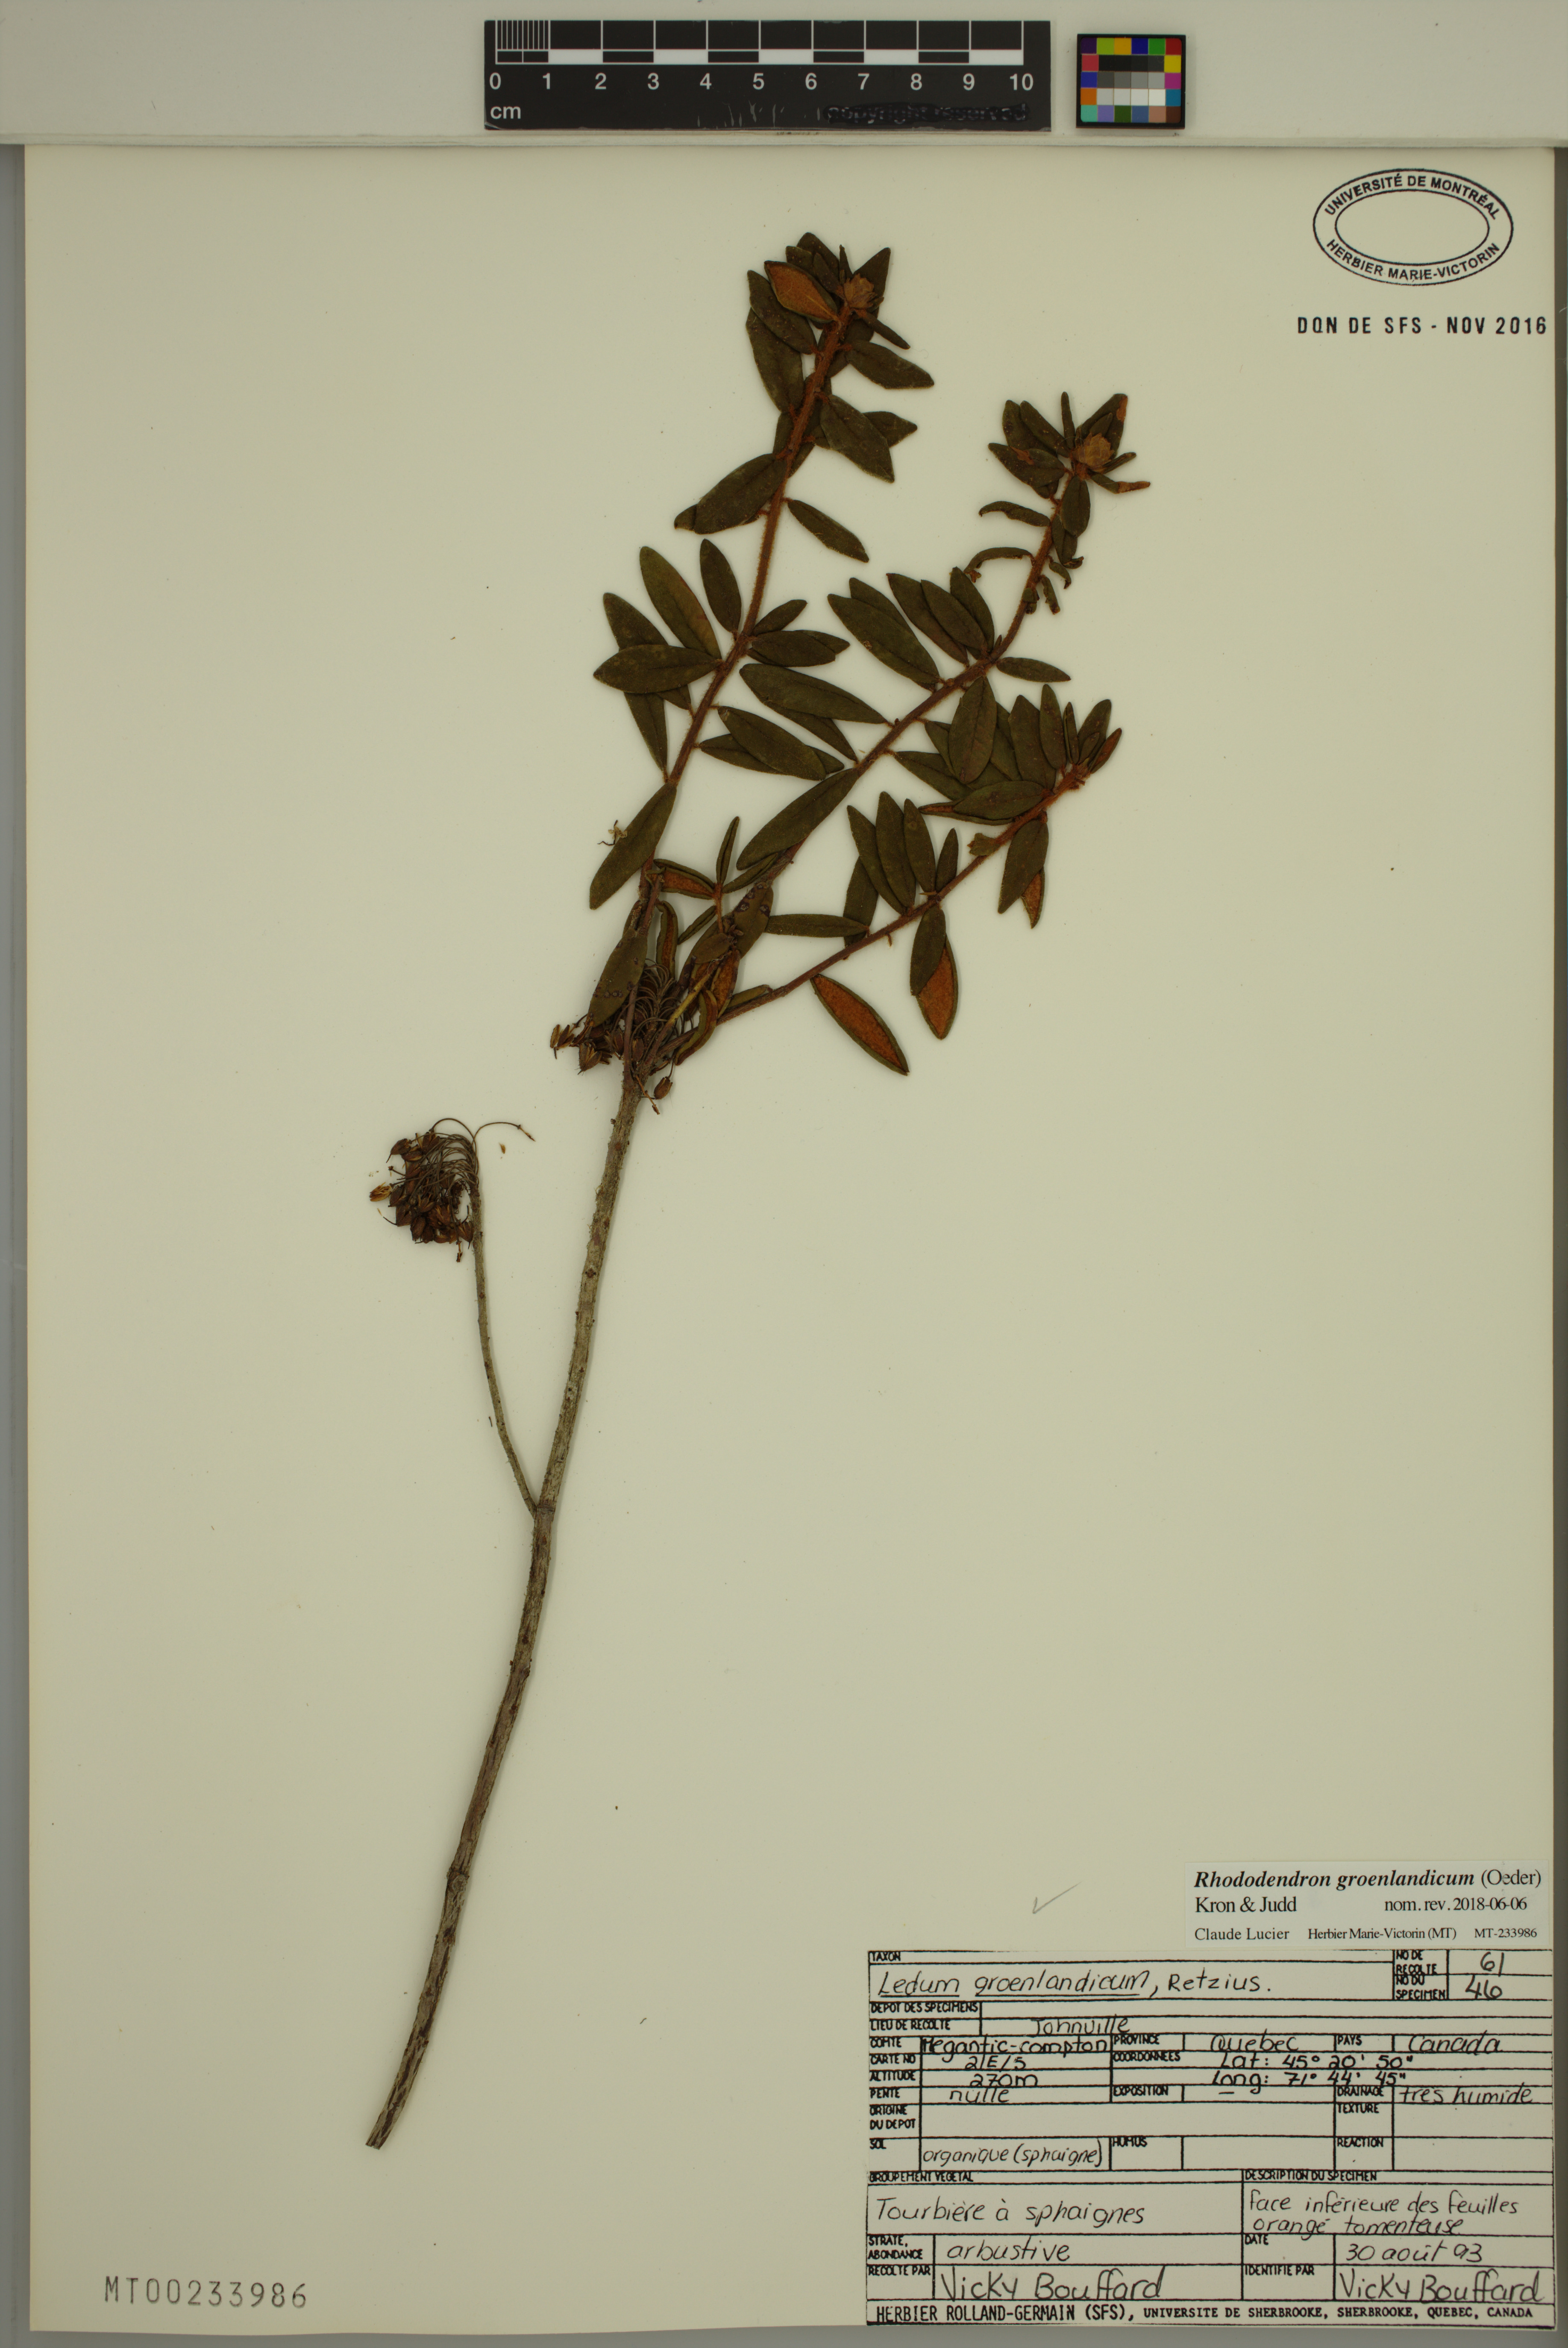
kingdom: Plantae
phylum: Tracheophyta
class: Magnoliopsida
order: Ericales
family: Ericaceae
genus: Rhododendron
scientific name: Rhododendron groenlandicum
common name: Bog labrador tea
